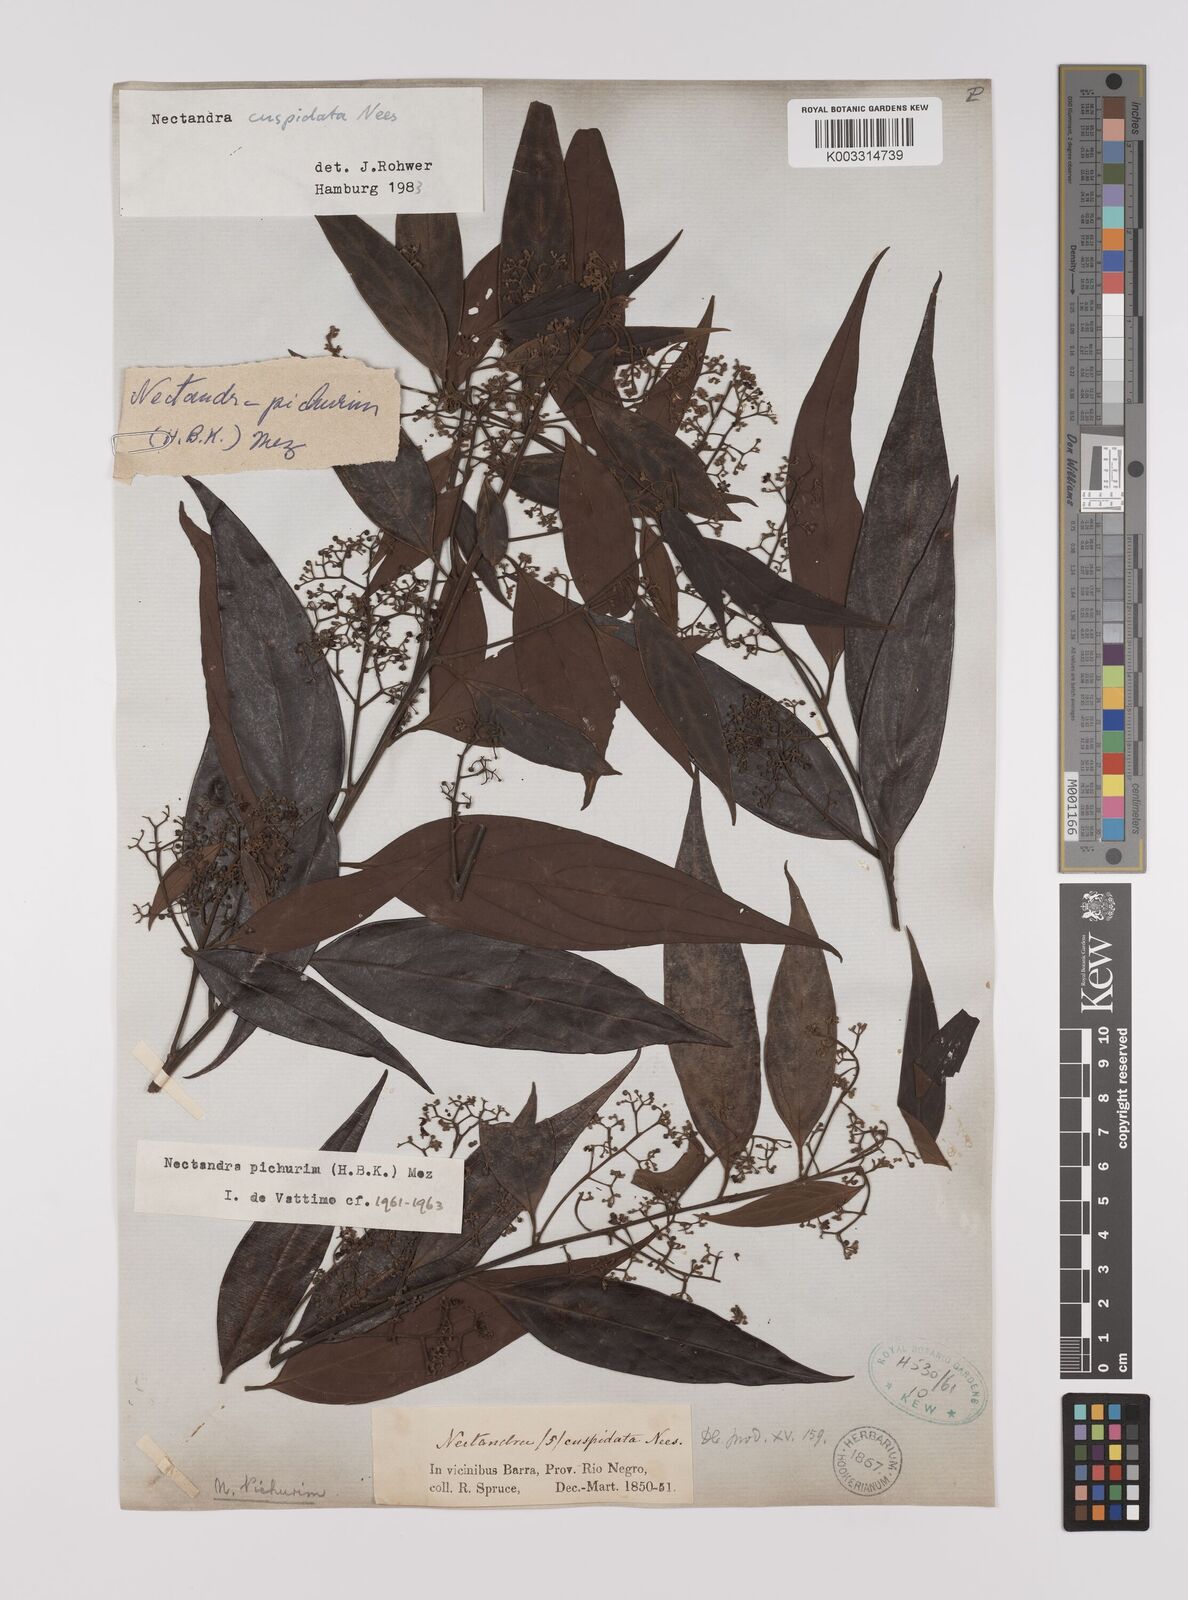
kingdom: Plantae
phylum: Tracheophyta
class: Magnoliopsida
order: Laurales
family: Lauraceae
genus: Nectandra
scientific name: Nectandra cuspidata
